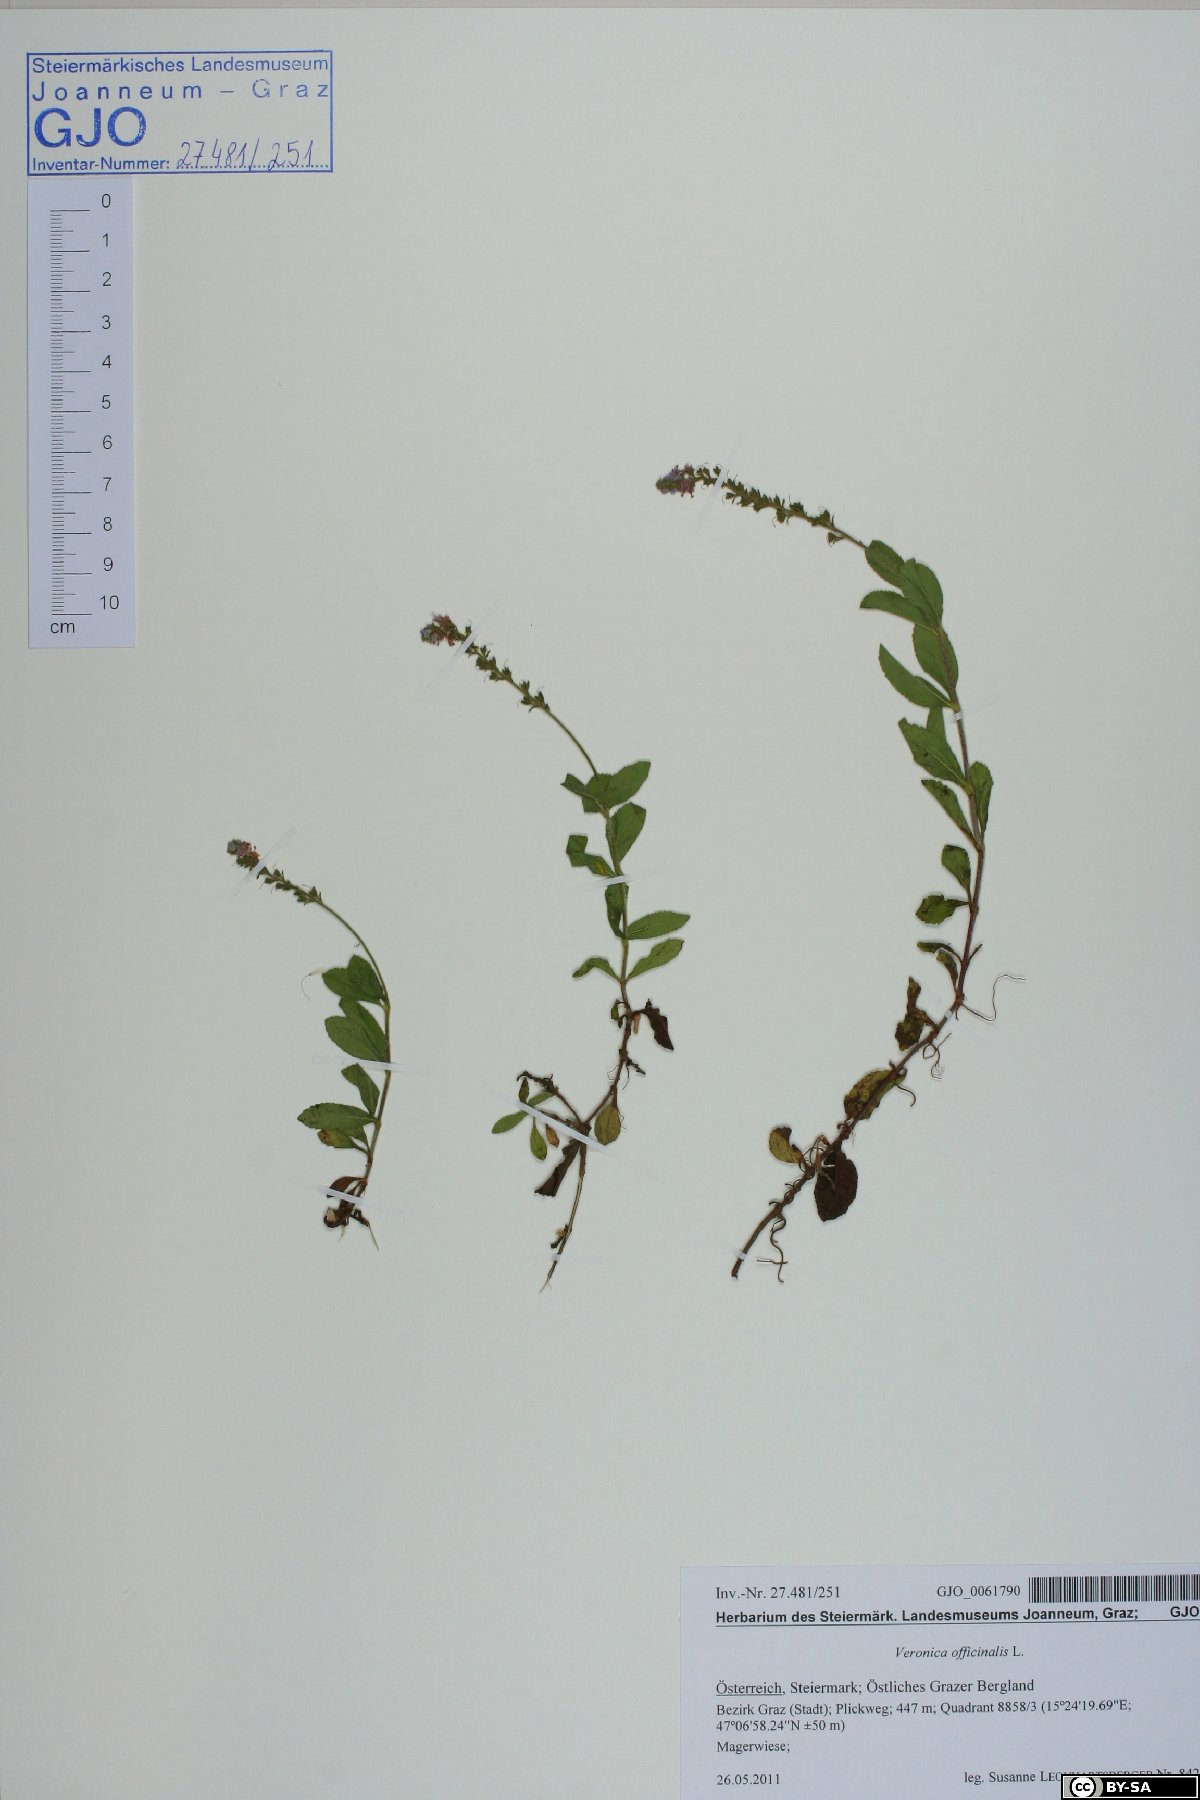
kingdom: Plantae
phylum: Tracheophyta
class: Magnoliopsida
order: Lamiales
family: Plantaginaceae
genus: Veronica
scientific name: Veronica officinalis
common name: Common speedwell
